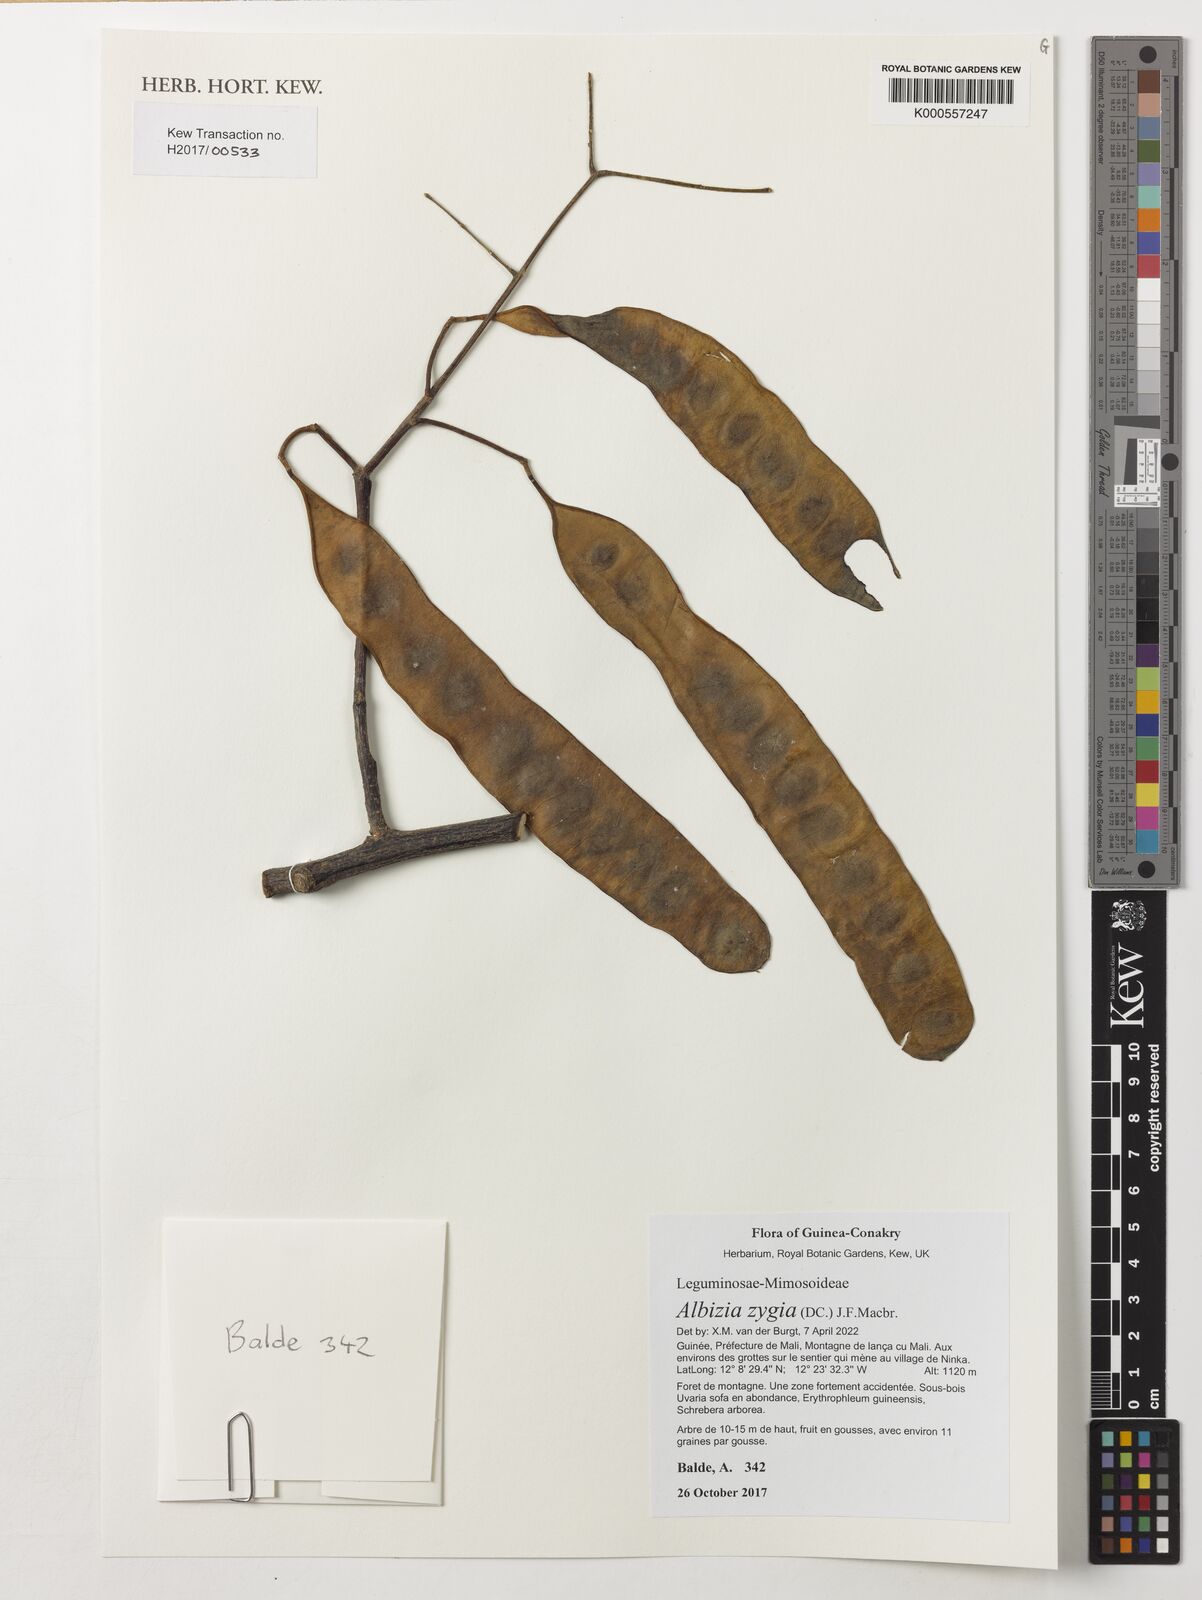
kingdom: Plantae
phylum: Tracheophyta
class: Magnoliopsida
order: Fabales
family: Fabaceae
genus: Albizia
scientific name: Albizia zygia
